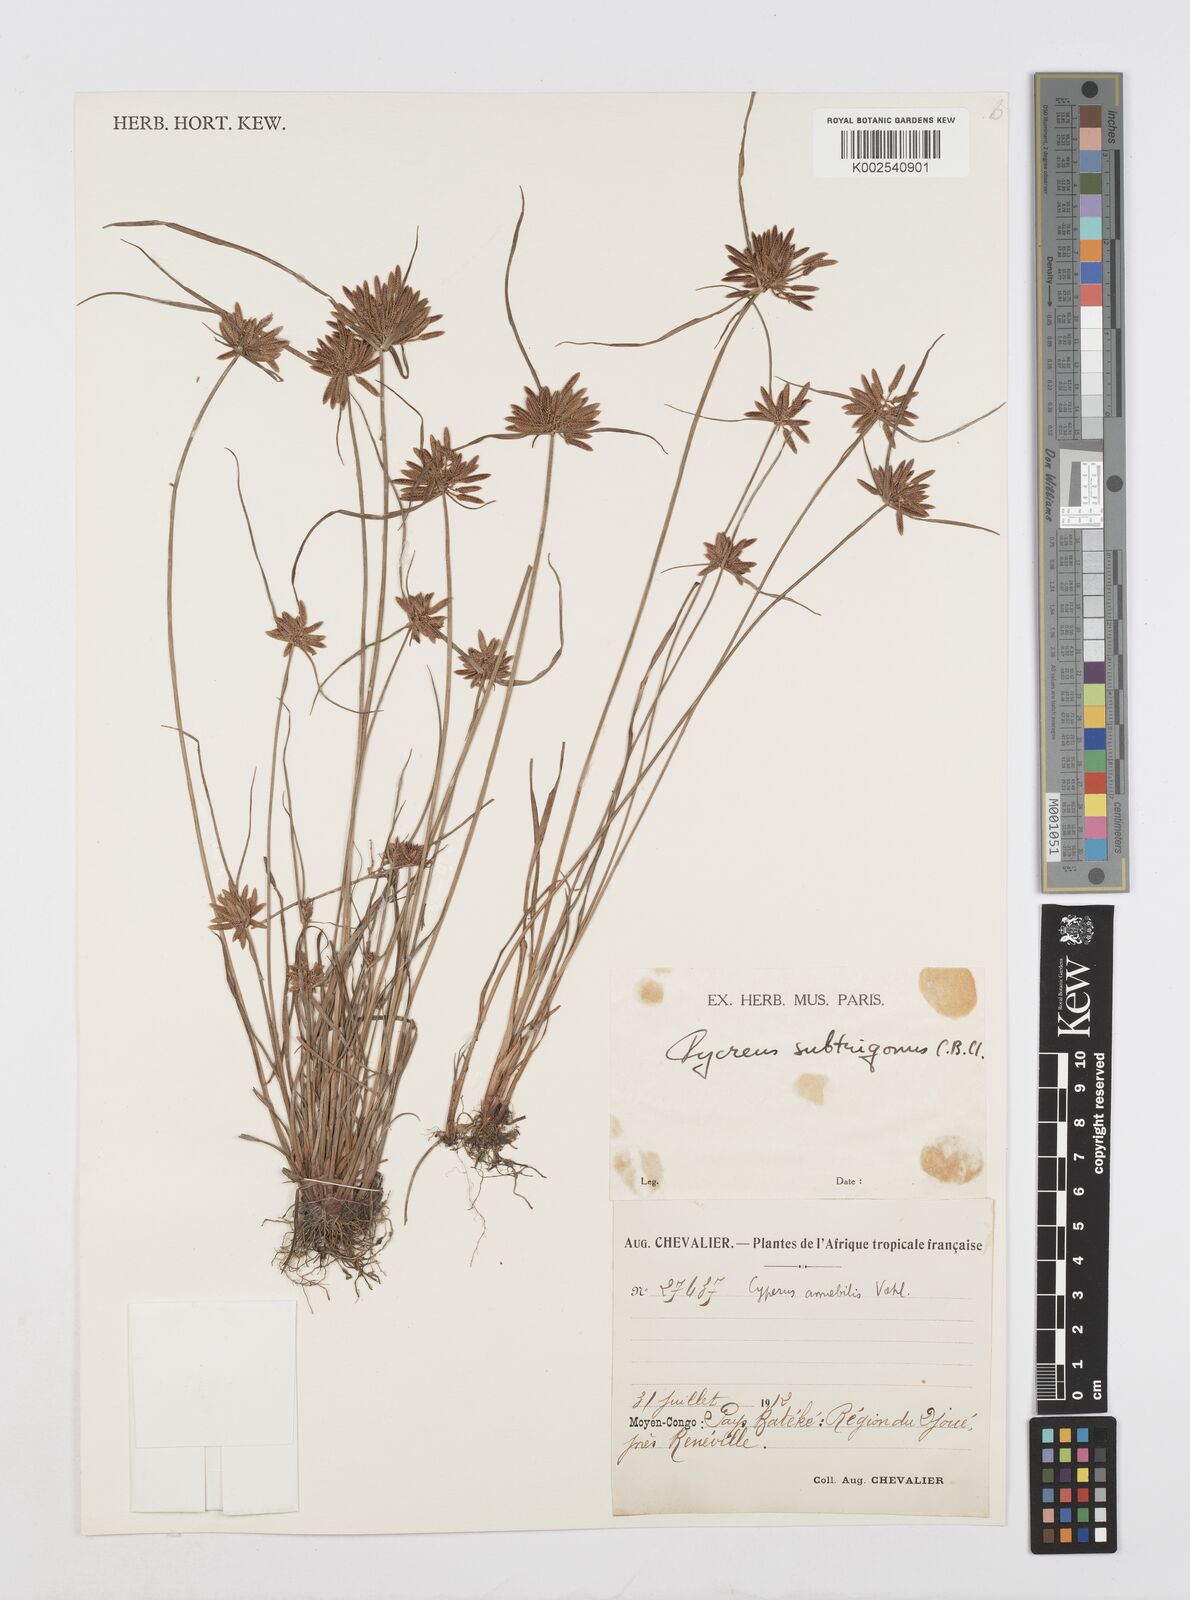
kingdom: Plantae
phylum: Tracheophyta
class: Liliopsida
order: Poales
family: Cyperaceae
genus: Cyperus
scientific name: Cyperus subtrigonus
